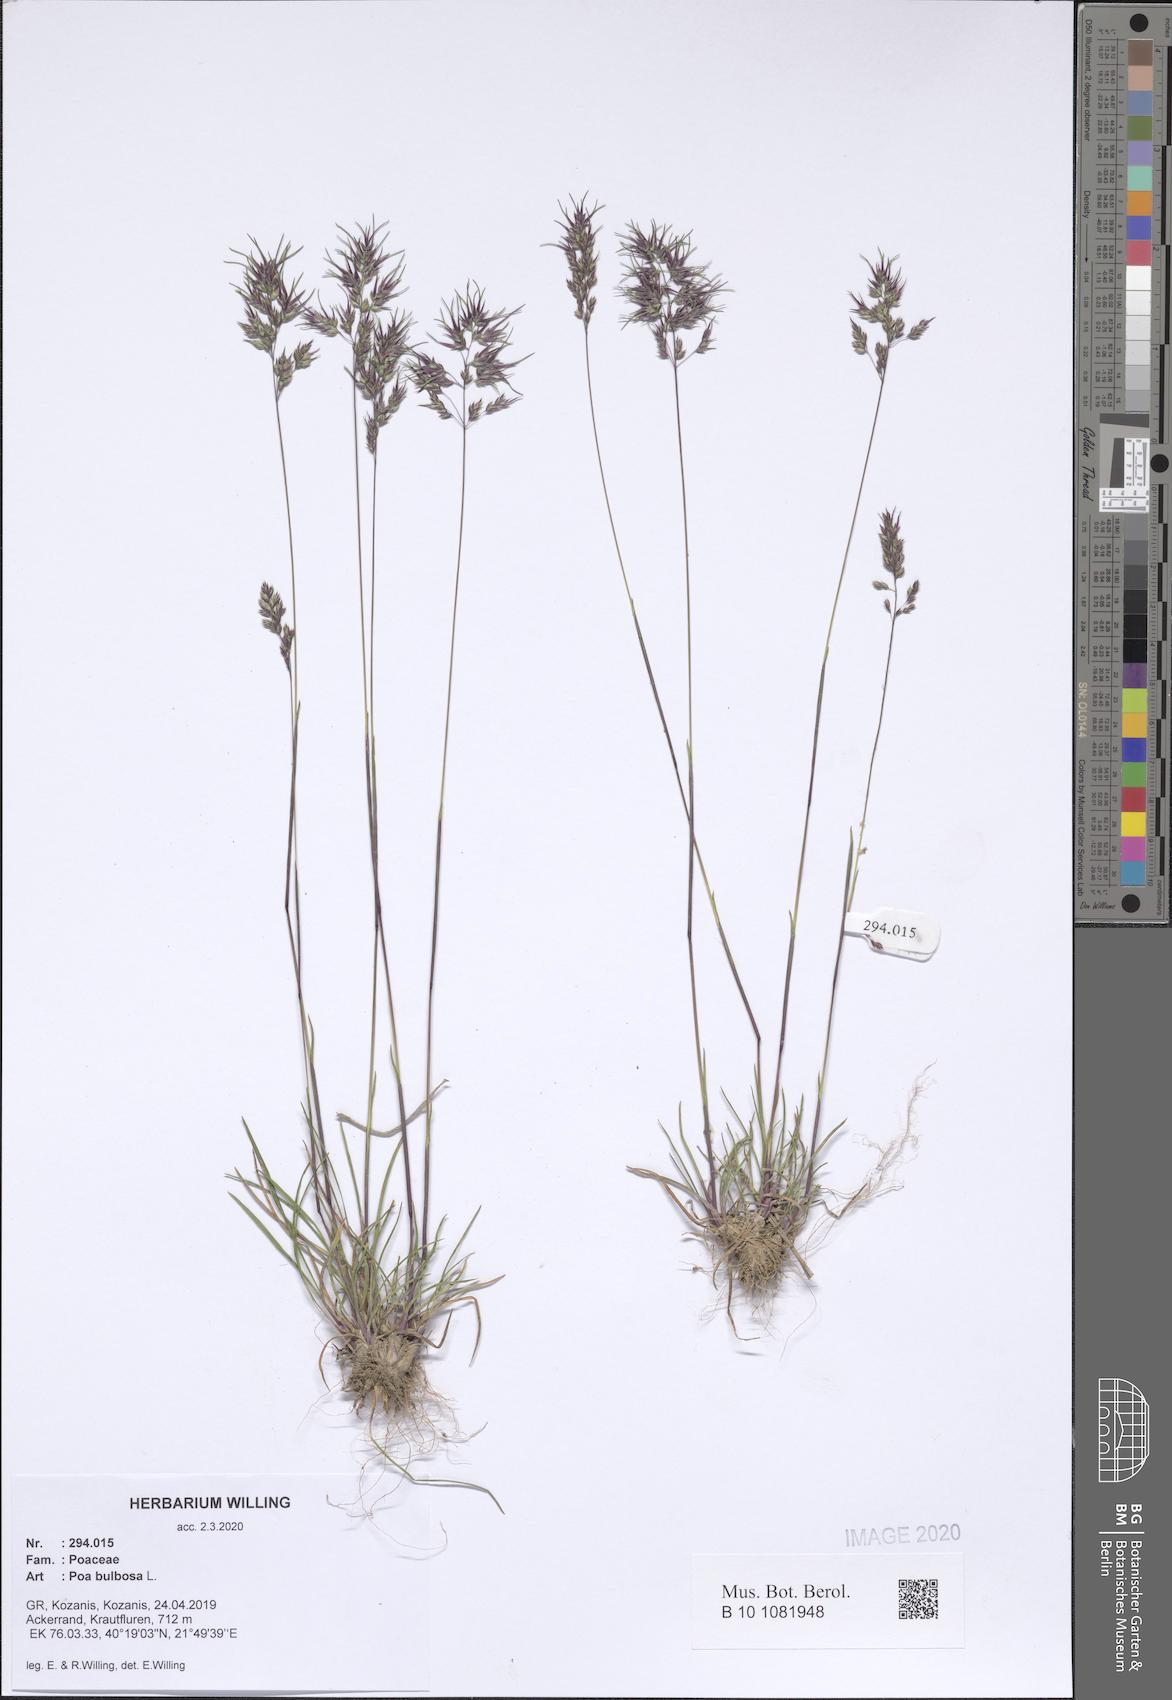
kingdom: Plantae
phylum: Tracheophyta
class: Liliopsida
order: Poales
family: Poaceae
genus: Poa
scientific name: Poa bulbosa
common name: Bulbous bluegrass
